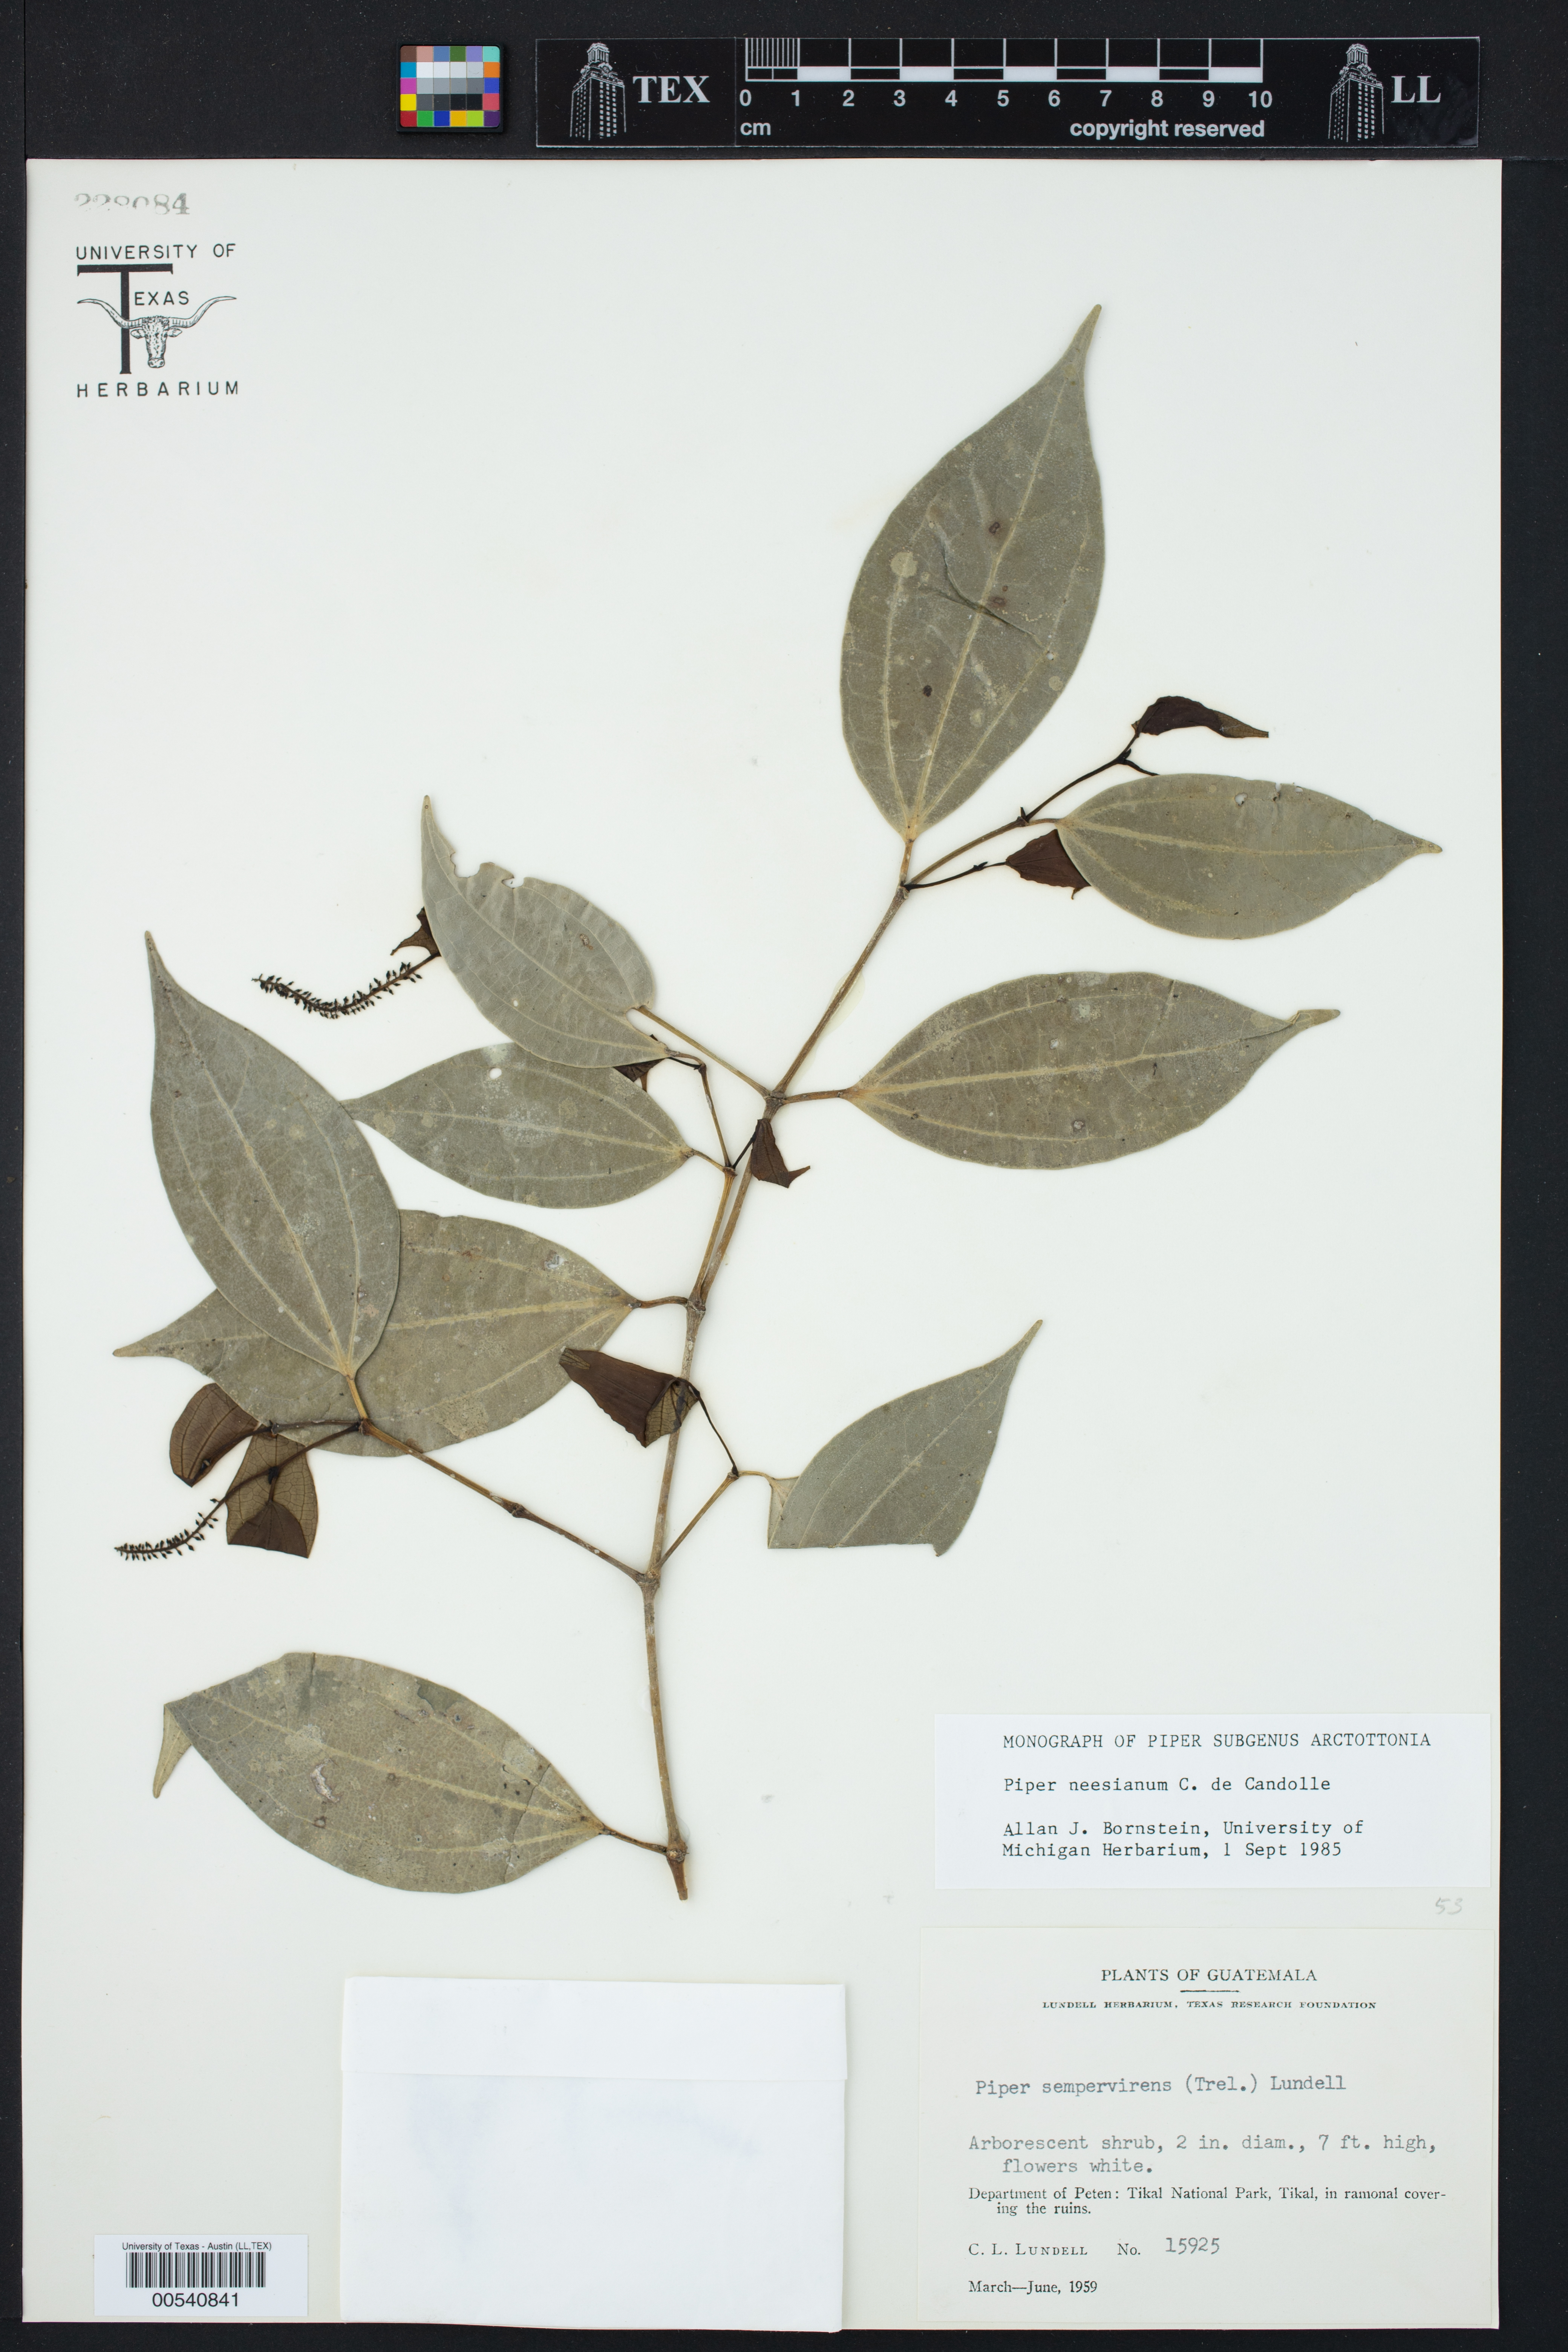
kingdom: Plantae
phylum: Tracheophyta
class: Magnoliopsida
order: Piperales
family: Piperaceae
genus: Piper
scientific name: Piper neesianum
